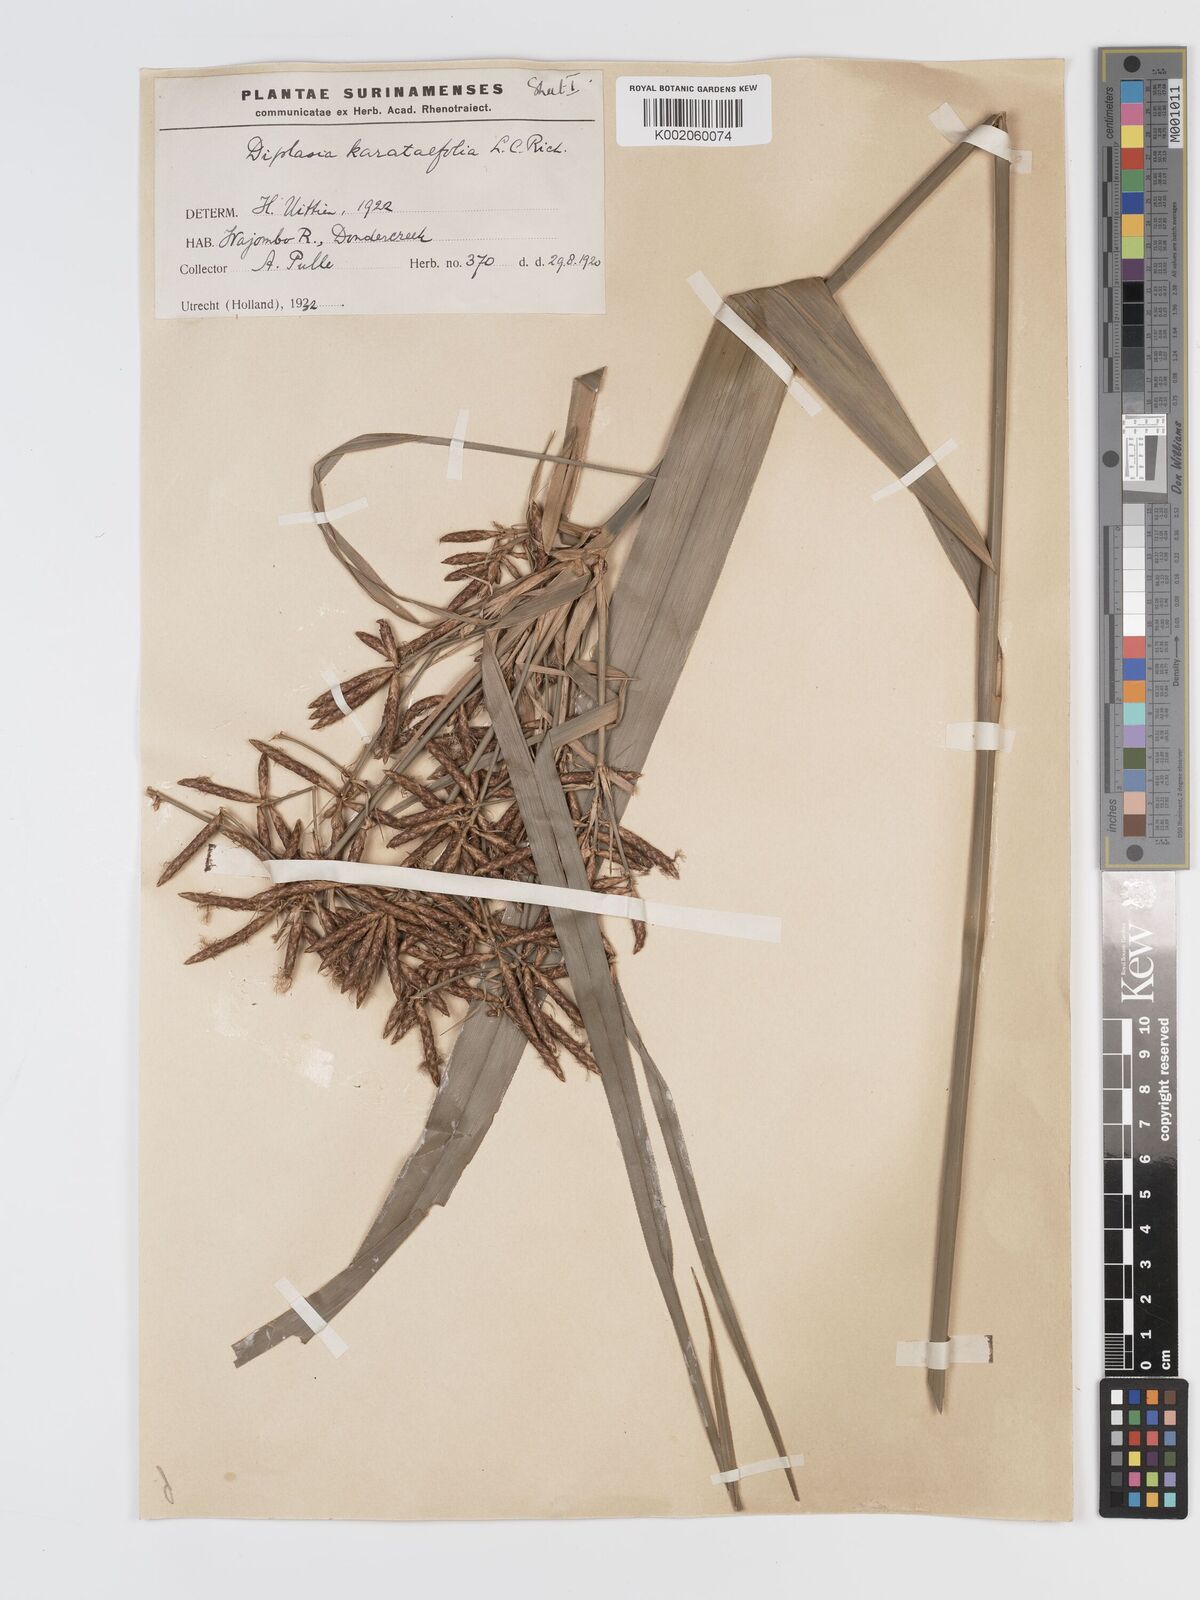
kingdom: Plantae
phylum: Tracheophyta
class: Liliopsida
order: Poales
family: Cyperaceae
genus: Diplasia
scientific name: Diplasia karatifolia
